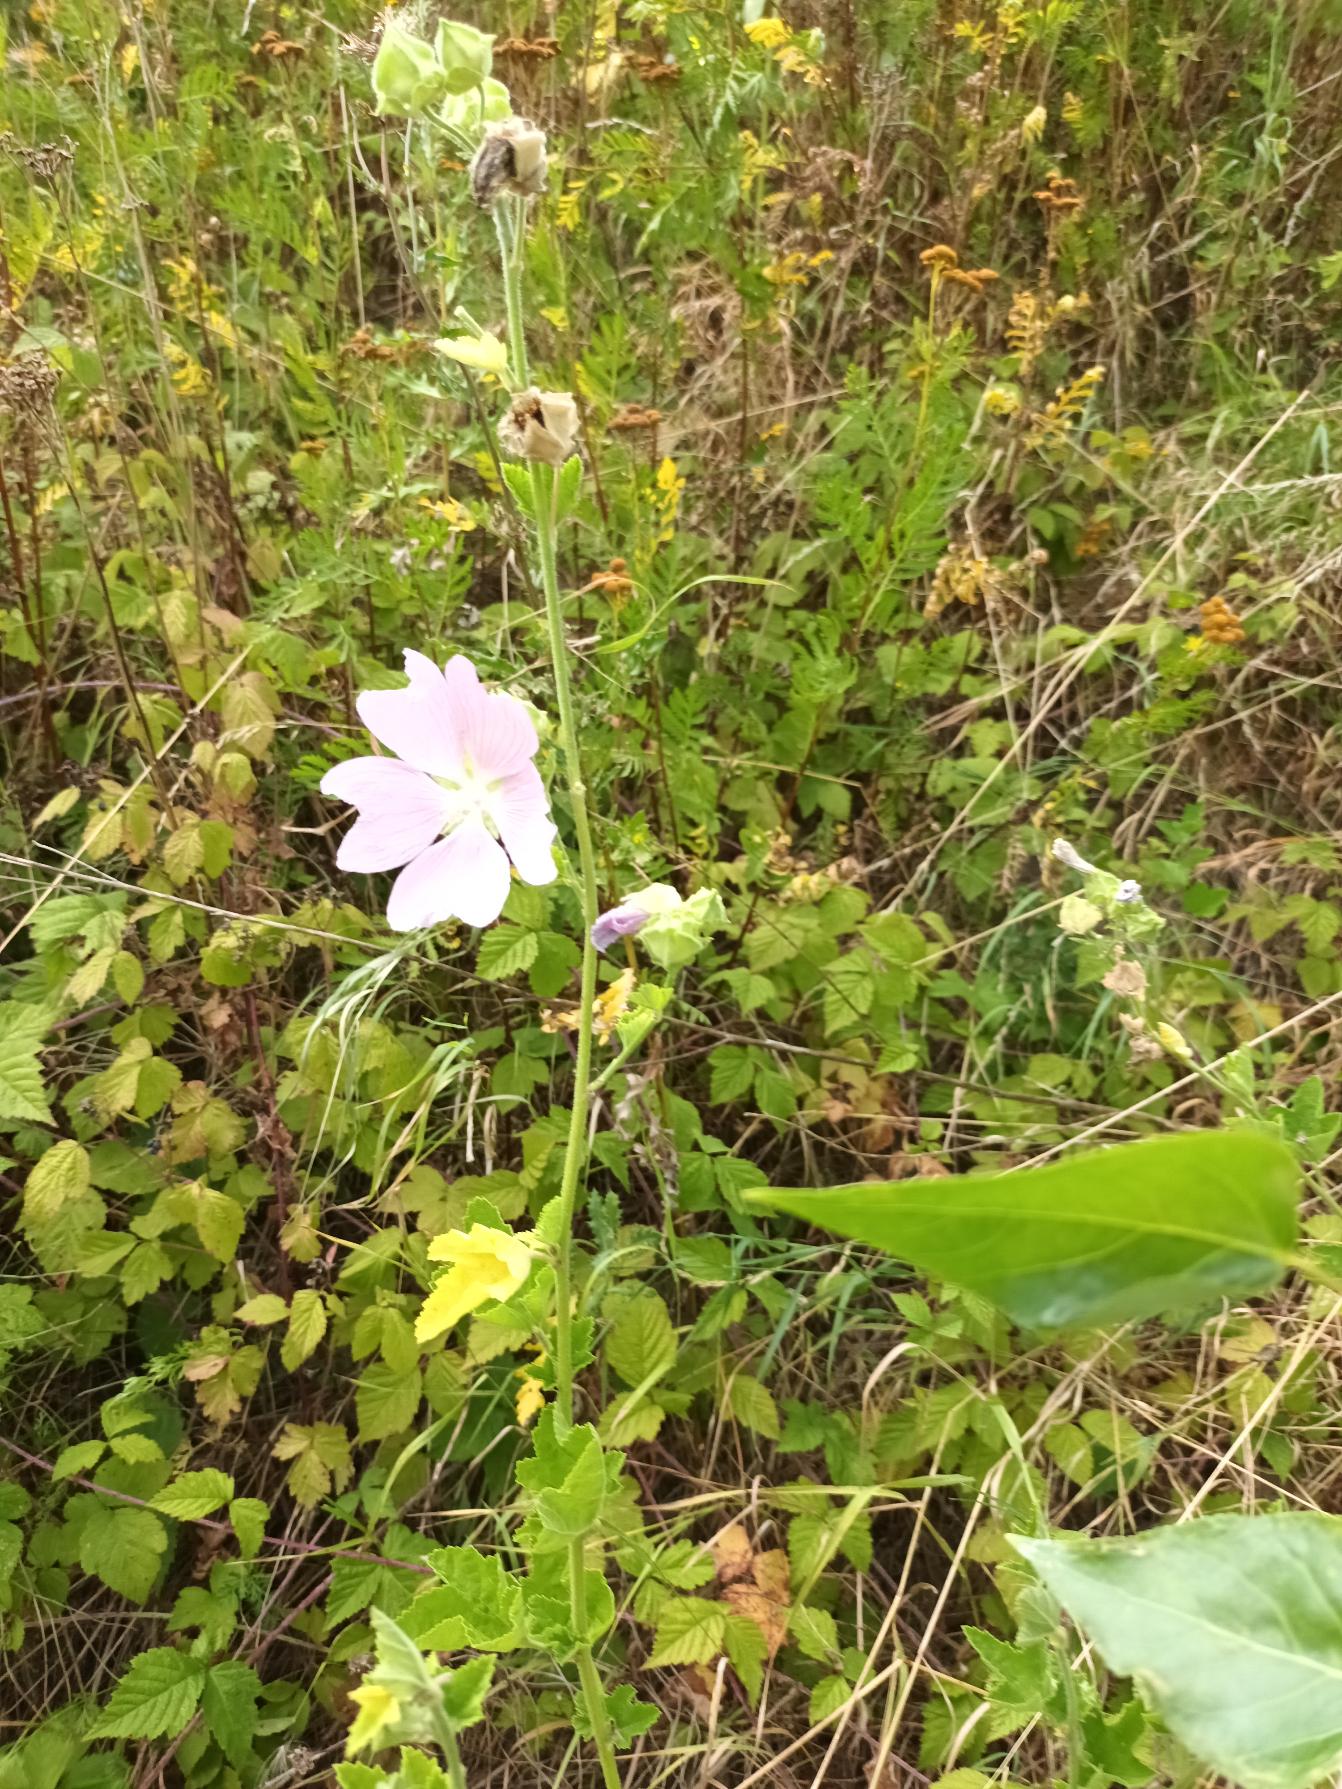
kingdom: Plantae
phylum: Tracheophyta
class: Magnoliopsida
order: Malvales
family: Malvaceae
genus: Malva
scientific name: Malva thuringiaca
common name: Tysk poppelrose
